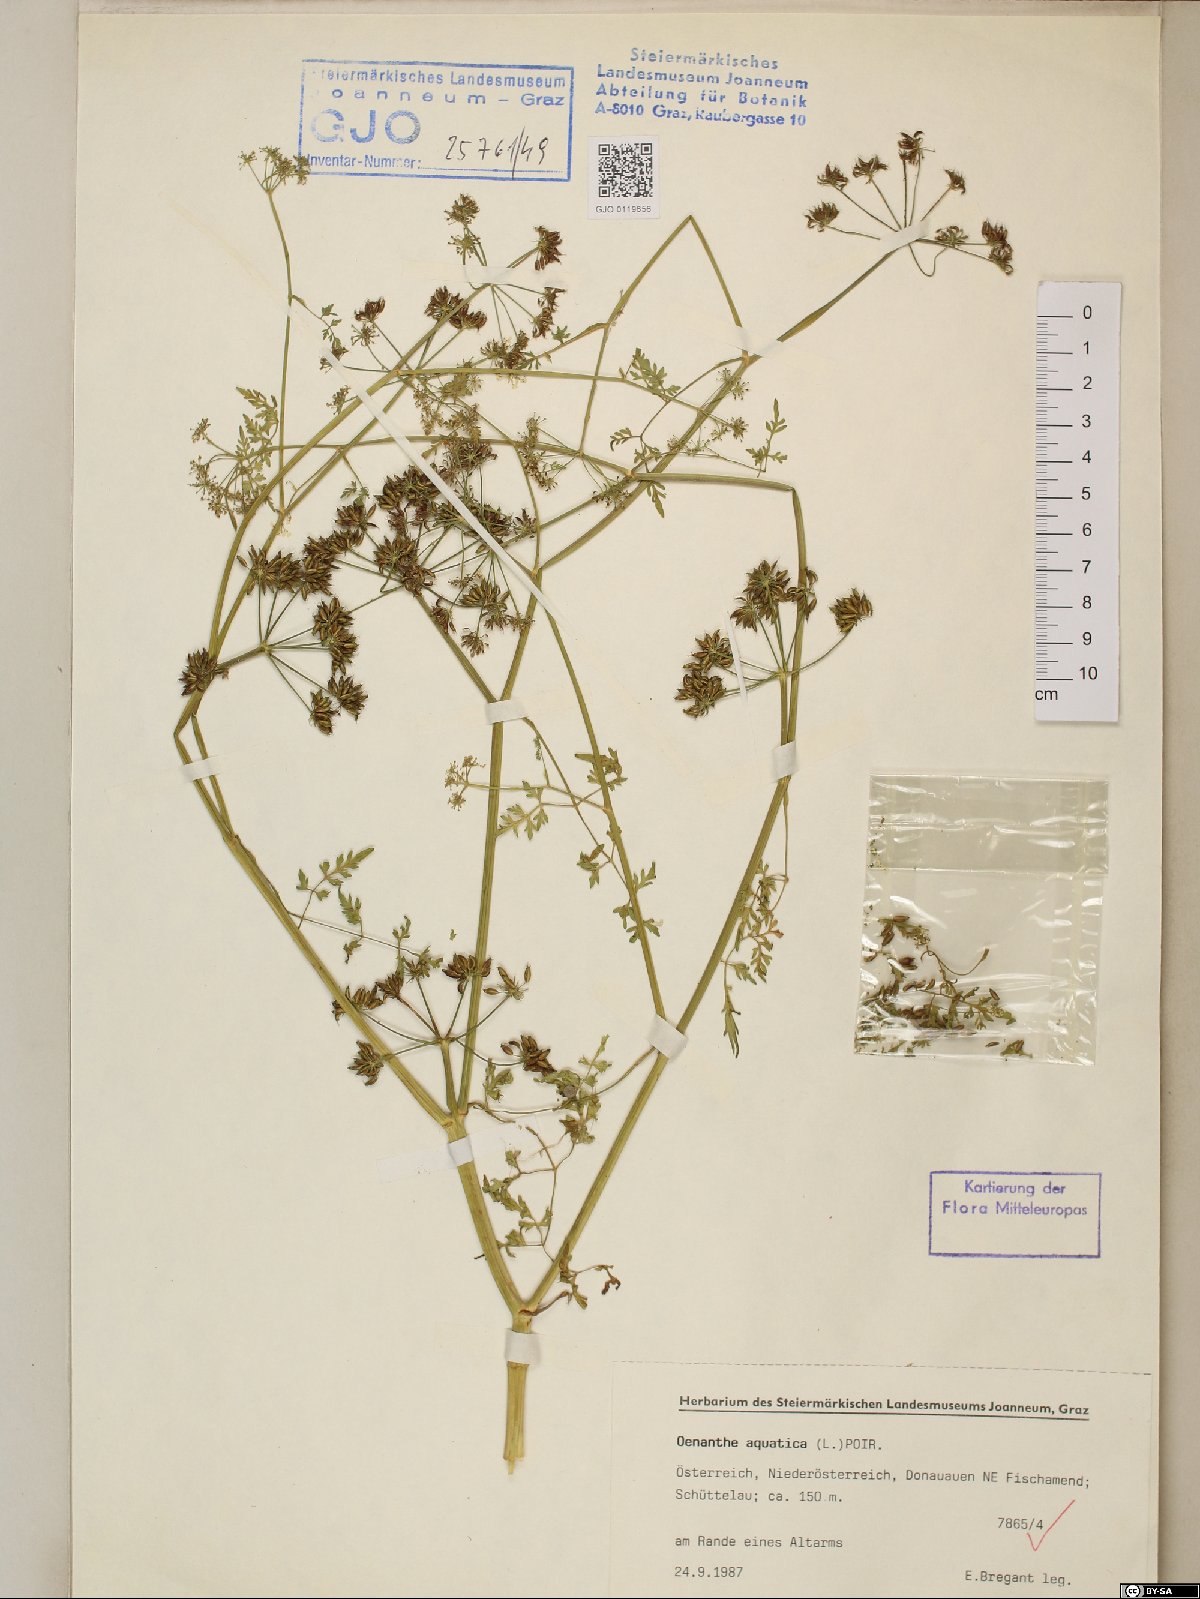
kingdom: Plantae
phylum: Tracheophyta
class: Magnoliopsida
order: Apiales
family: Apiaceae
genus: Oenanthe
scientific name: Oenanthe aquatica
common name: Fine-leaved water-dropwort
